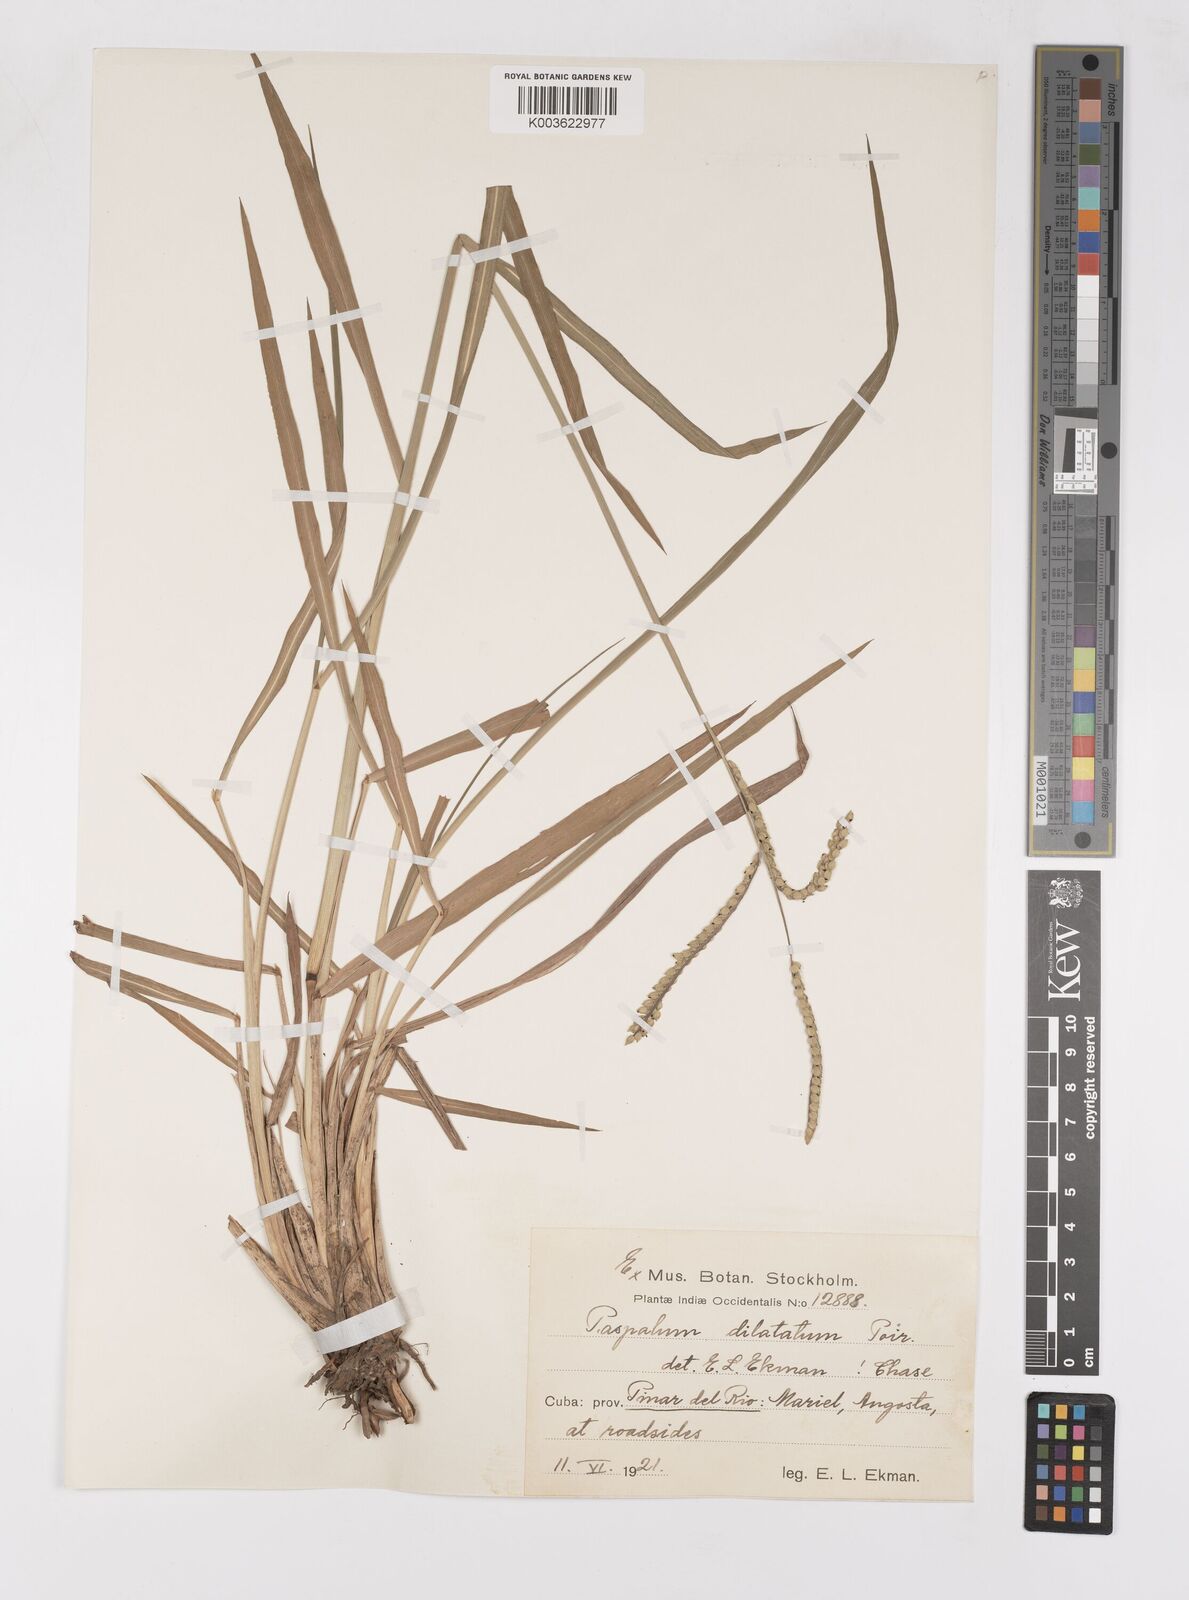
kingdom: Plantae
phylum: Tracheophyta
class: Liliopsida
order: Poales
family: Poaceae
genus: Paspalum
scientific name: Paspalum dilatatum
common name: Dallisgrass
